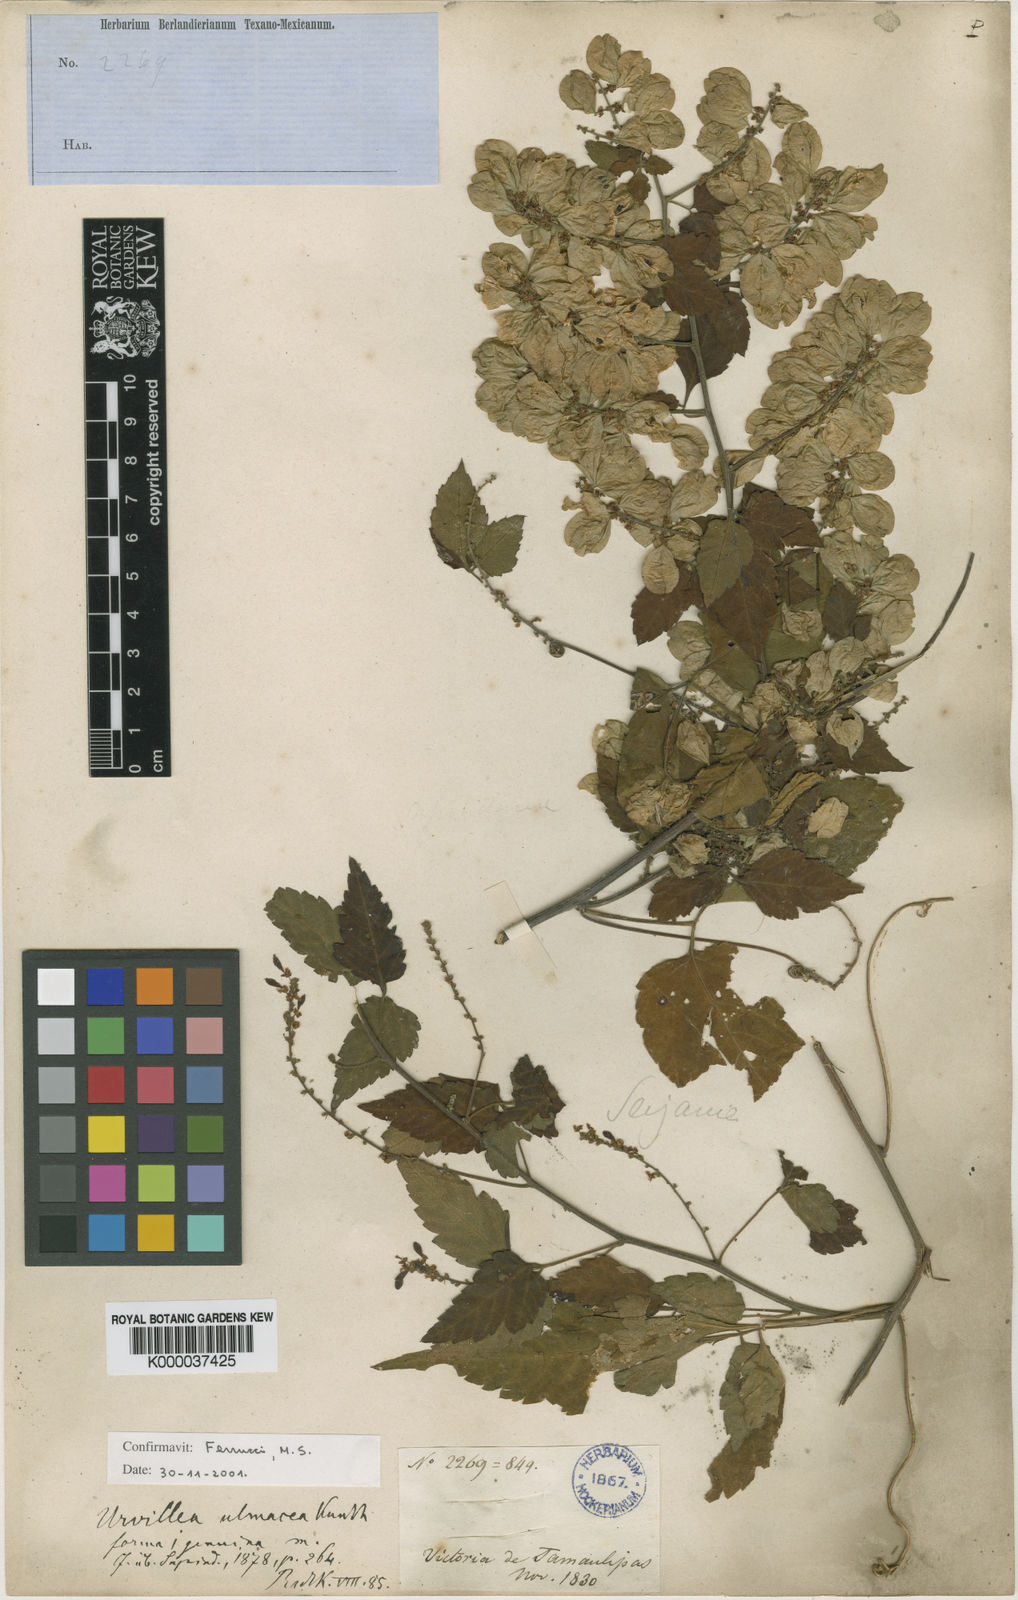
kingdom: Plantae
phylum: Tracheophyta
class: Magnoliopsida
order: Sapindales
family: Sapindaceae
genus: Urvillea
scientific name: Urvillea ulmacea
